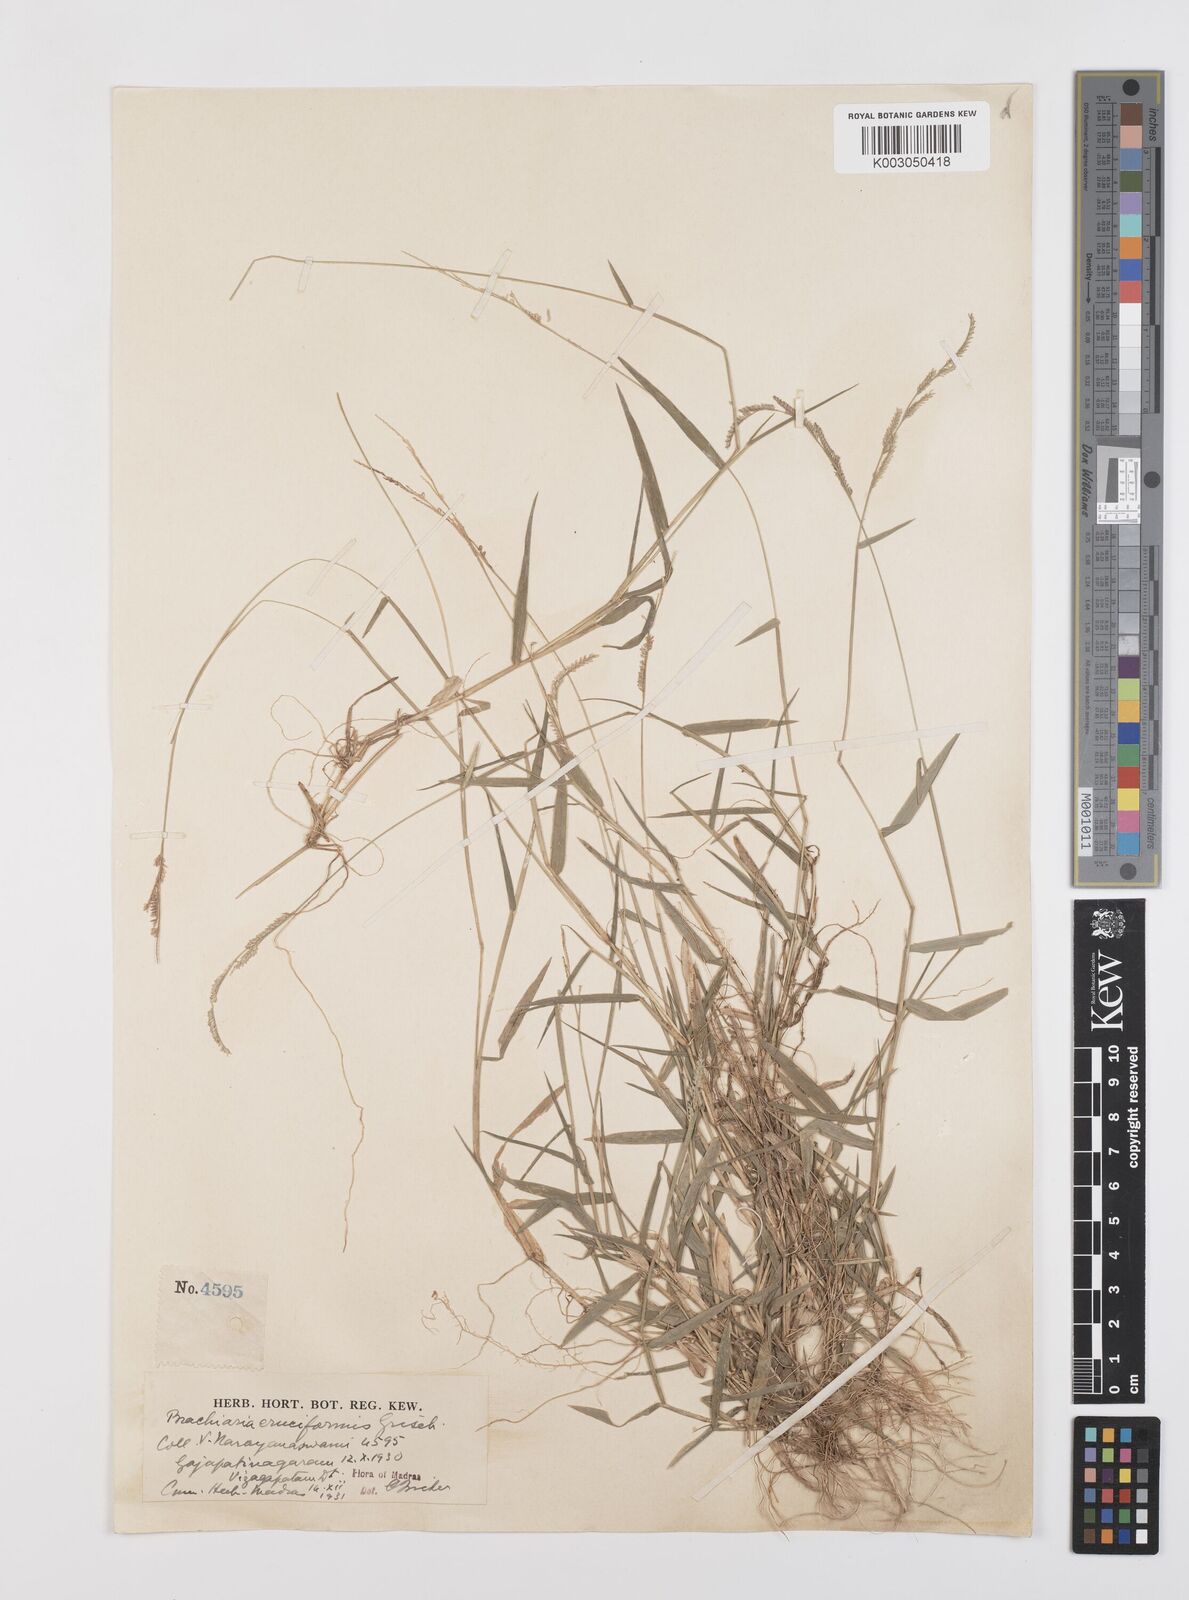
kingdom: Plantae
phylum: Tracheophyta
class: Liliopsida
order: Poales
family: Poaceae
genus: Moorochloa
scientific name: Moorochloa eruciformis
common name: Sweet signalgrass
